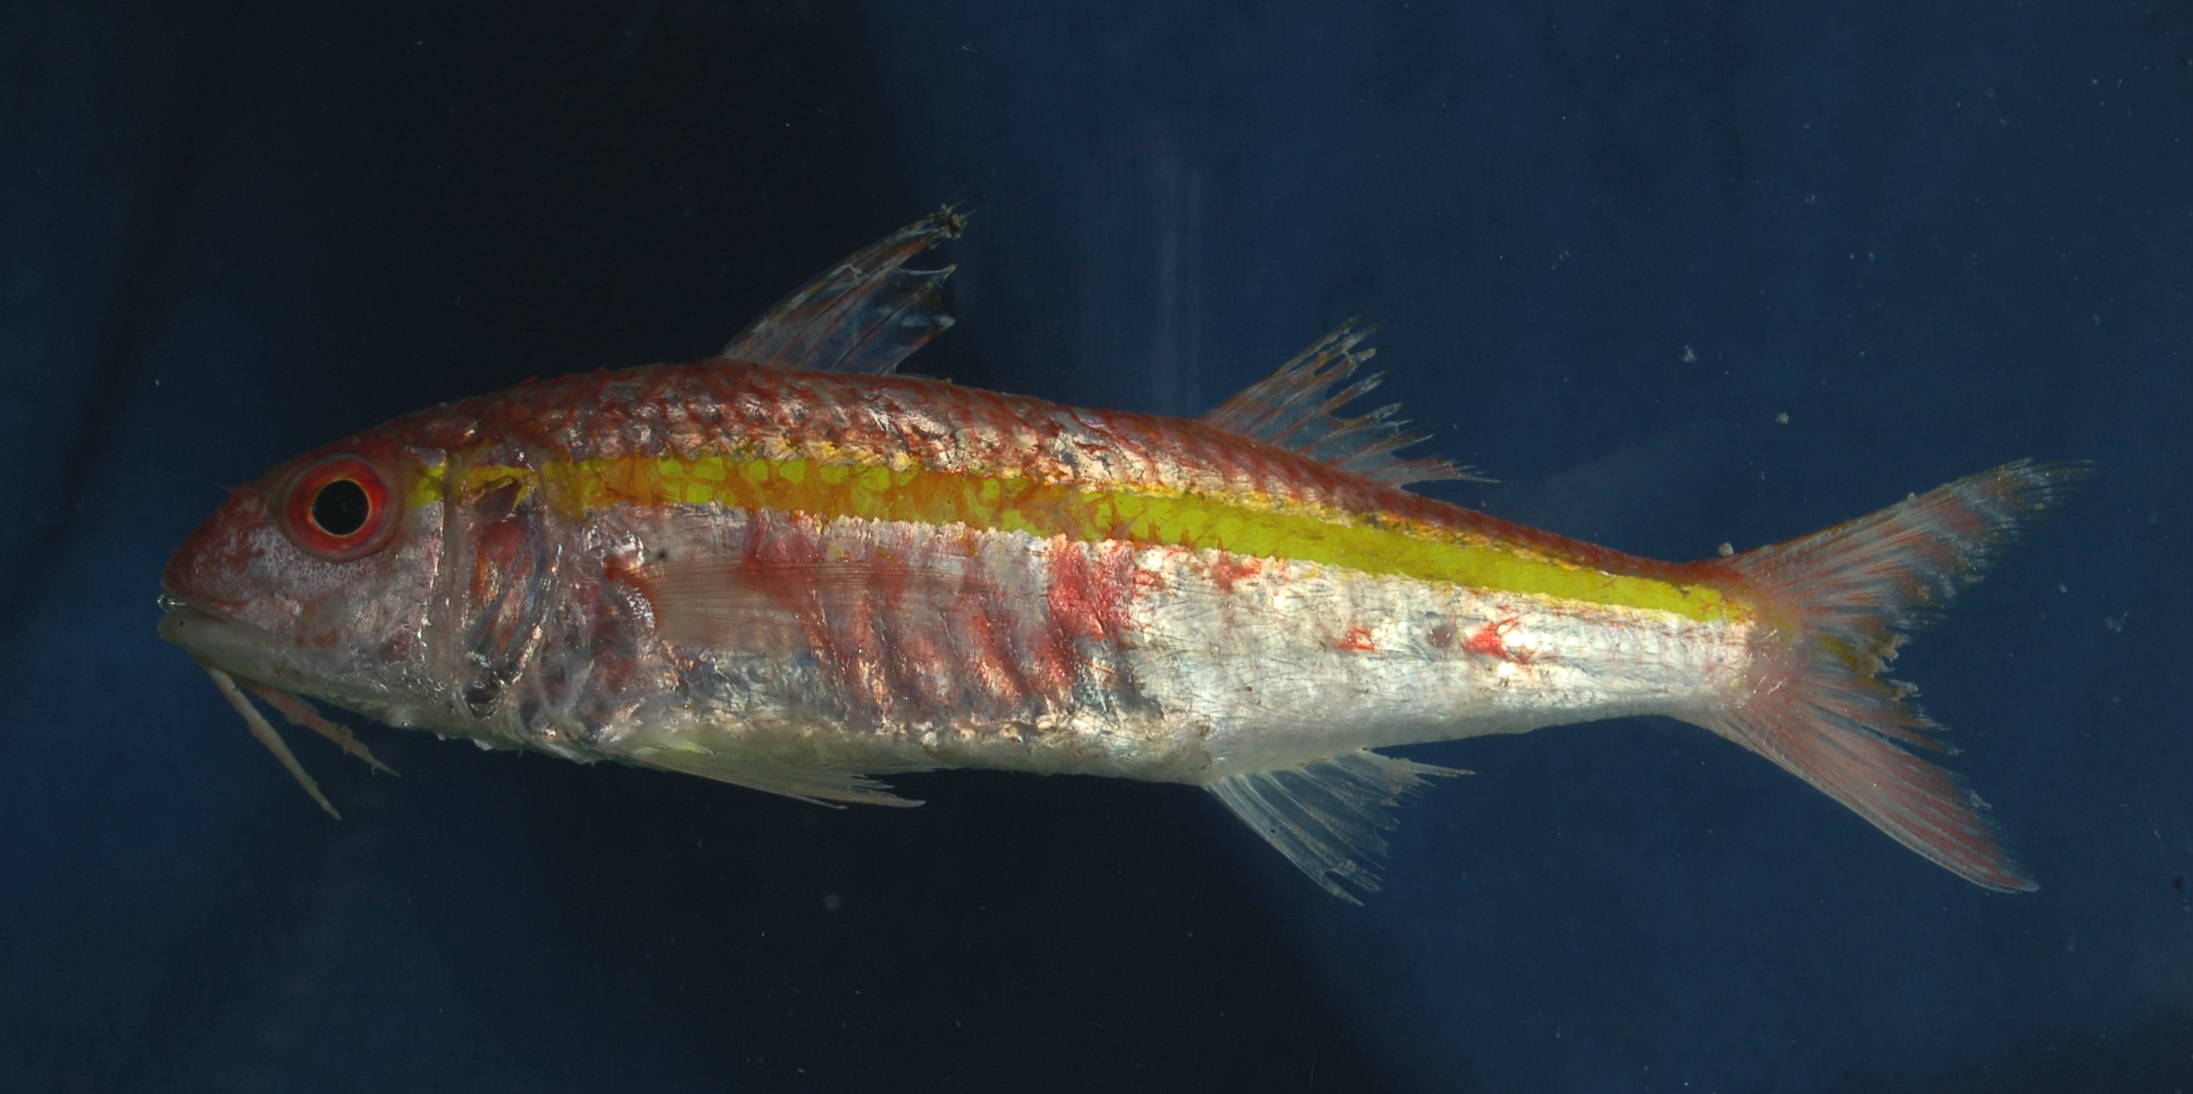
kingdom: Animalia
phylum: Chordata
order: Perciformes
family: Mullidae
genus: Upeneus
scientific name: Upeneus moluccensis
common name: Goldband goatfish
